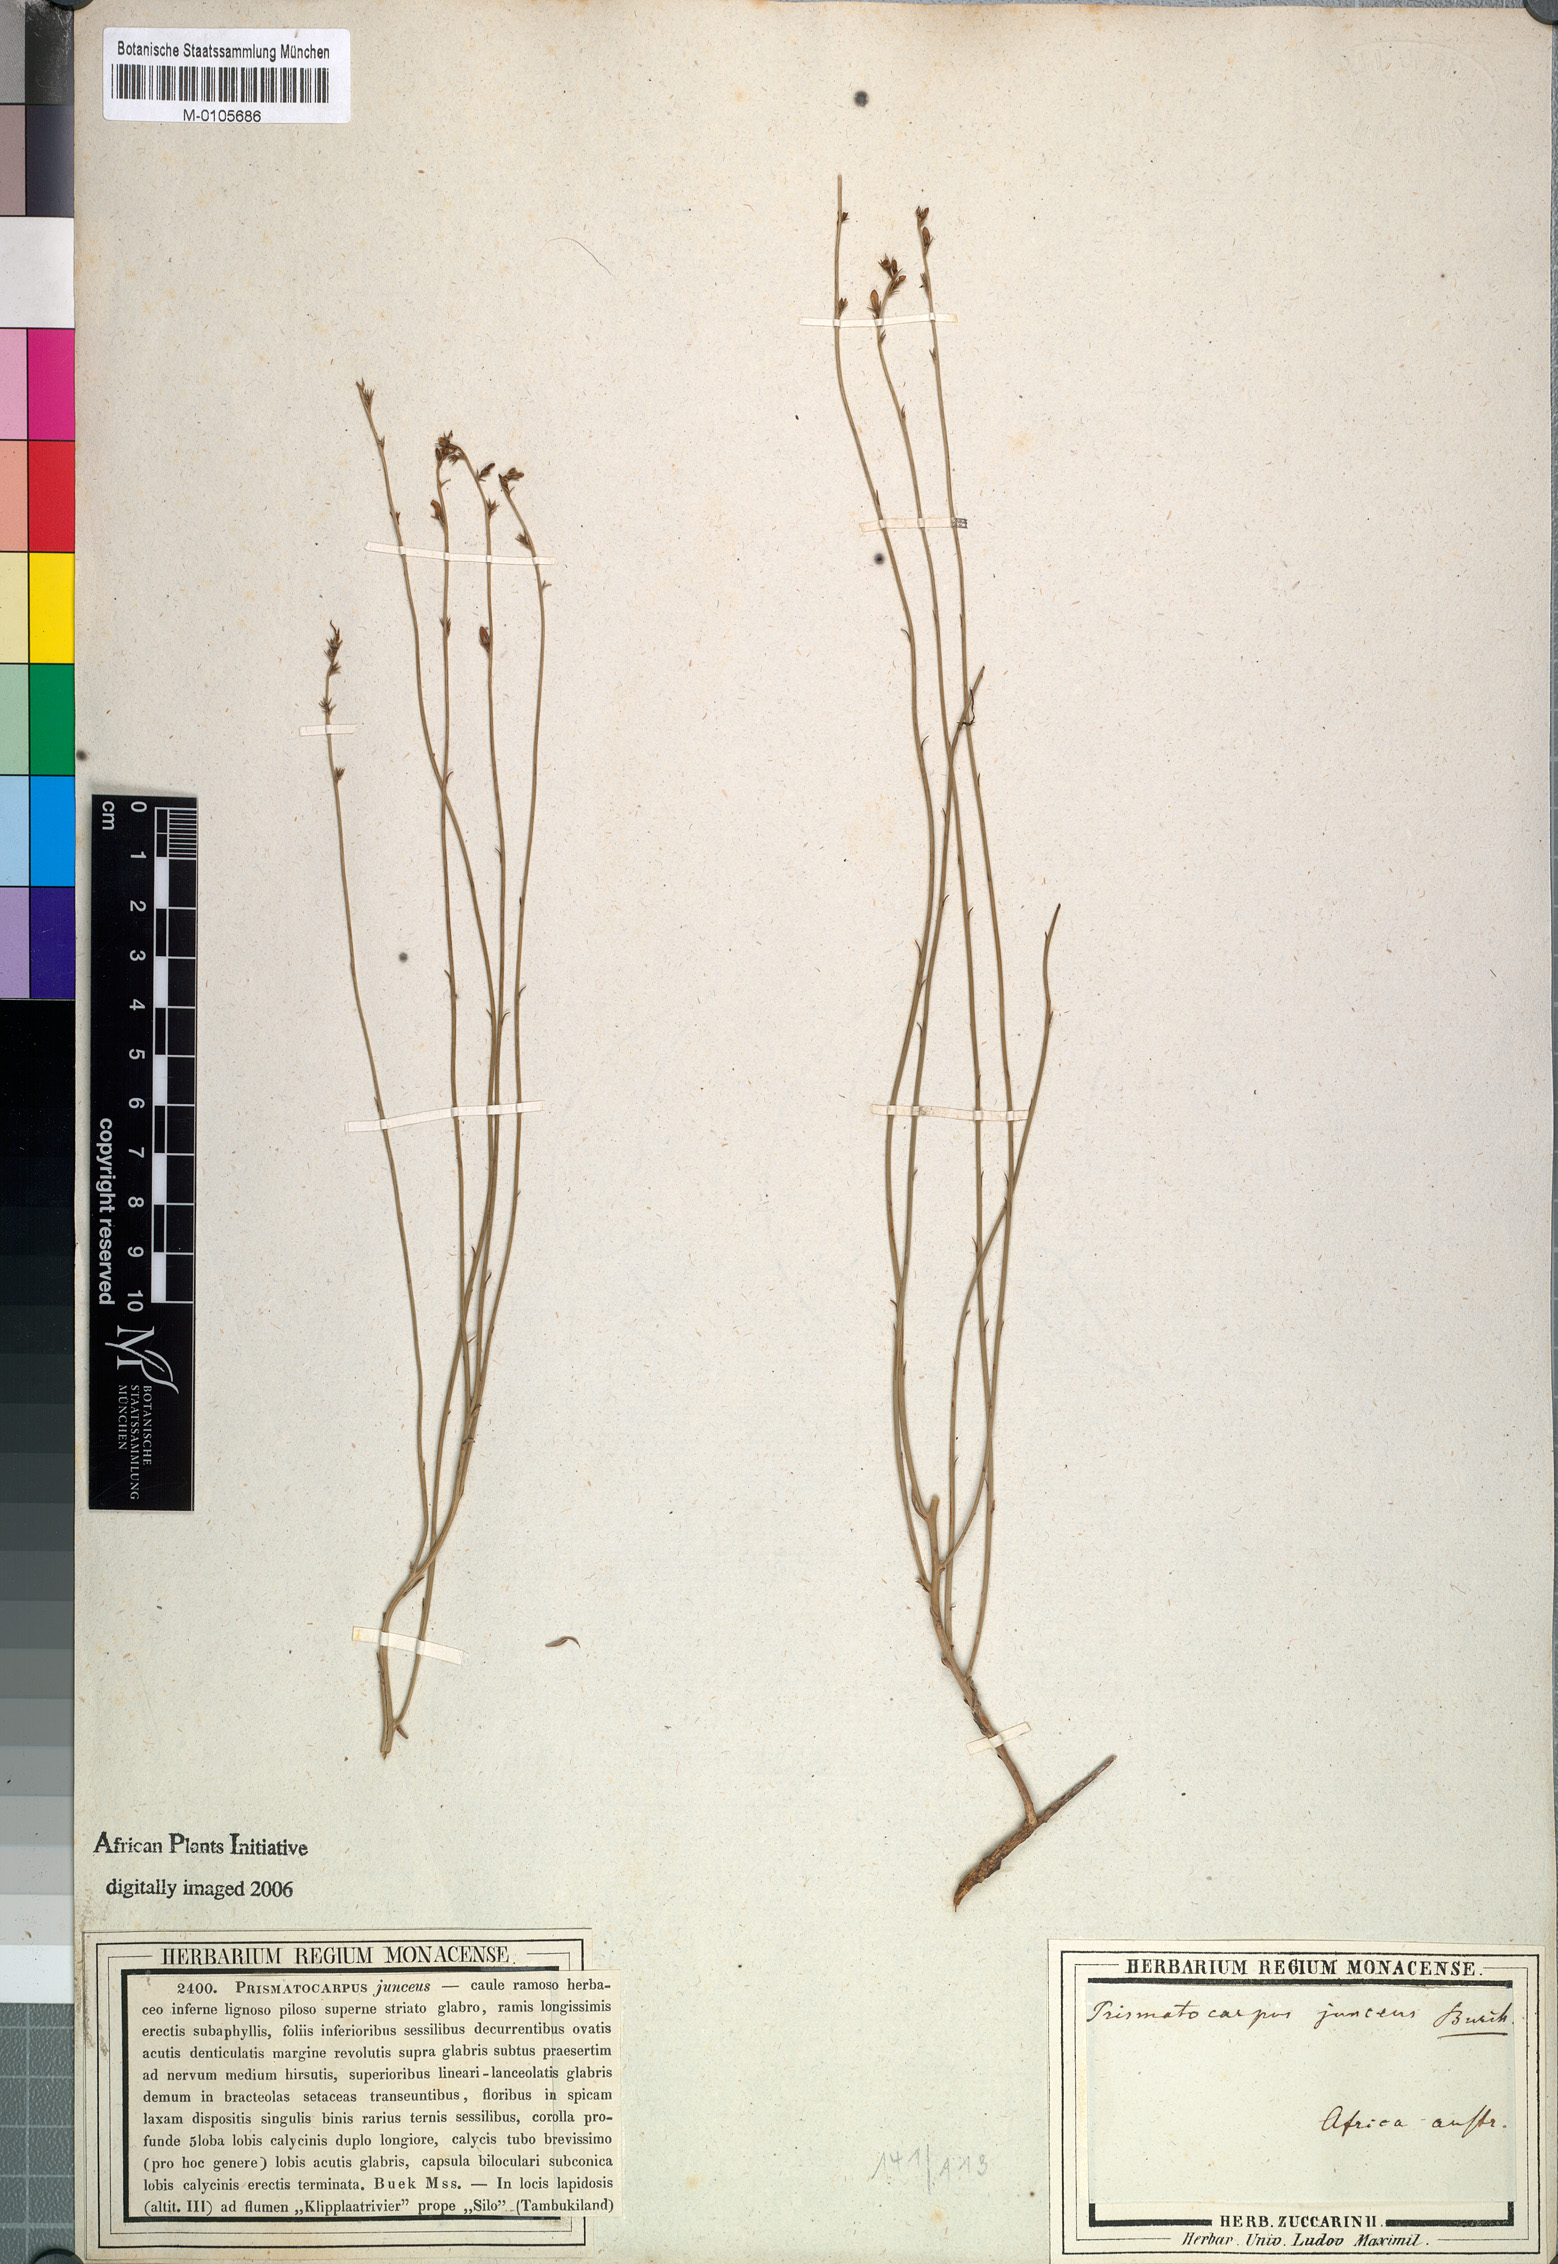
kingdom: Plantae
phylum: Tracheophyta
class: Magnoliopsida
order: Asterales
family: Campanulaceae
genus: Wahlenbergia
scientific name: Wahlenbergia juncea
